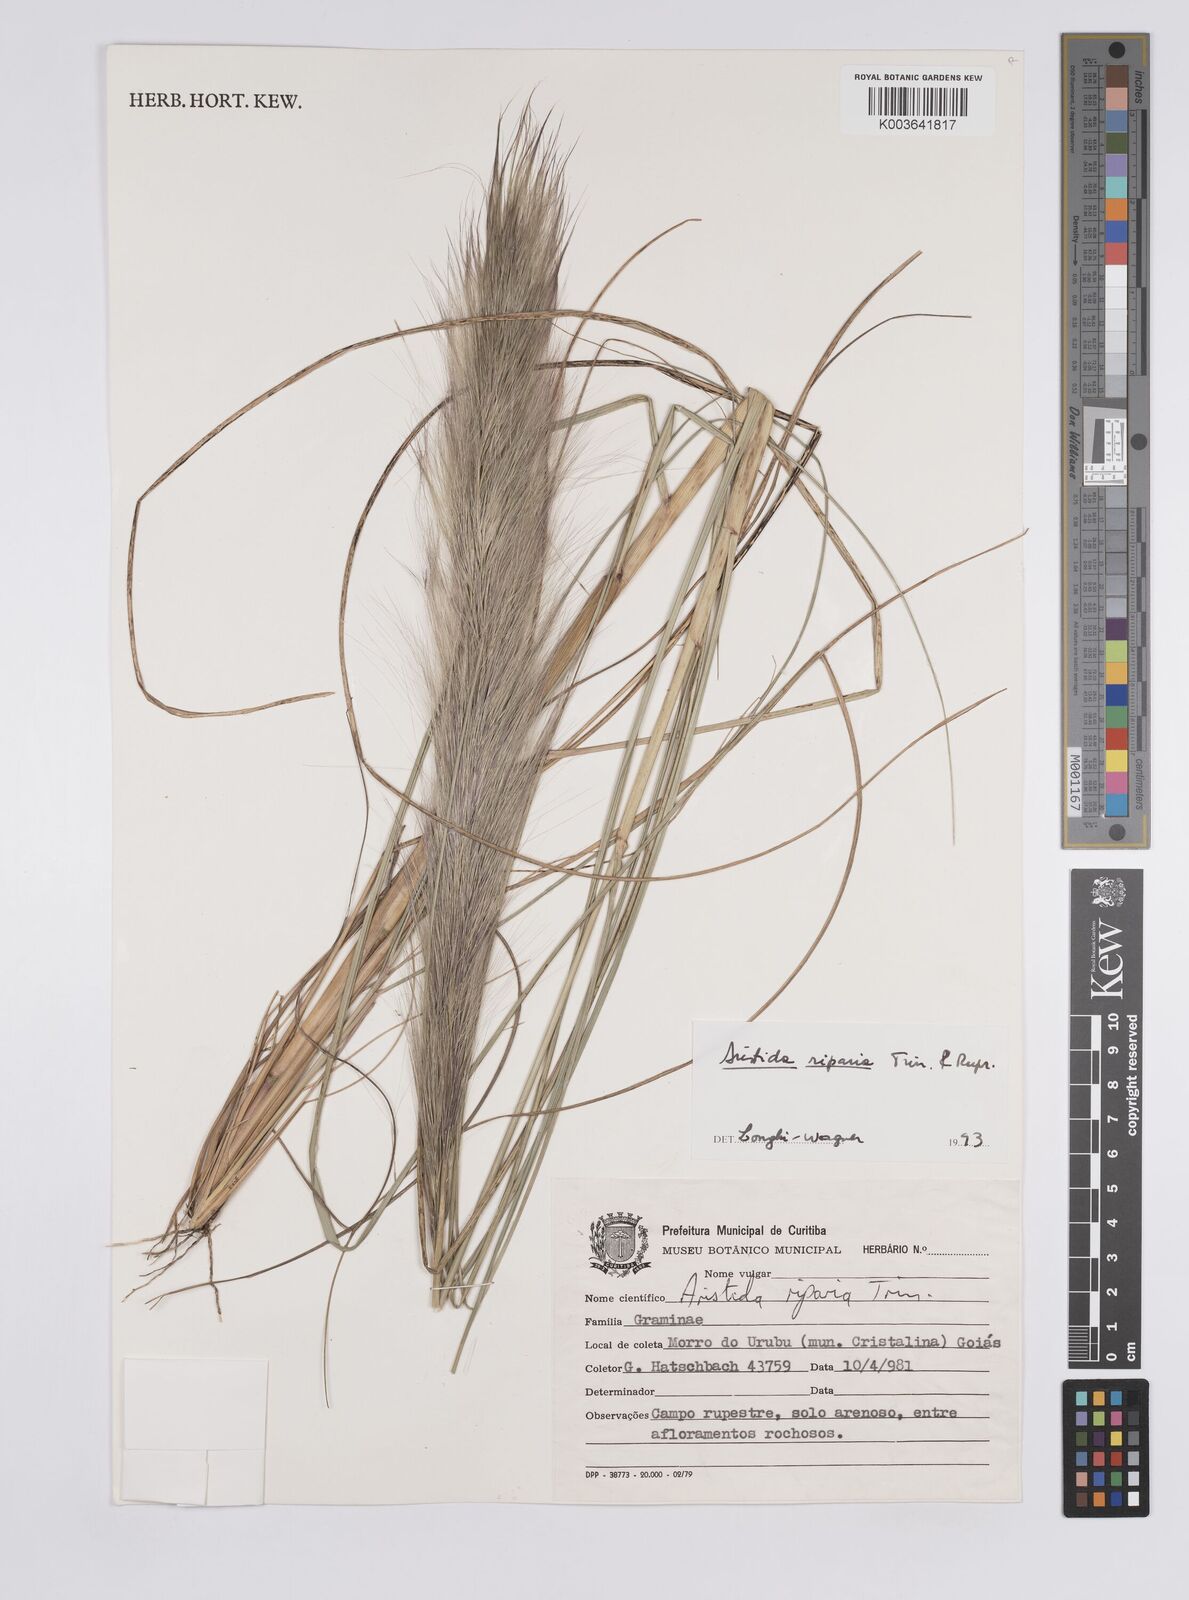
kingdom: Plantae
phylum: Tracheophyta
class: Liliopsida
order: Poales
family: Poaceae
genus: Aristida
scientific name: Aristida riparia
